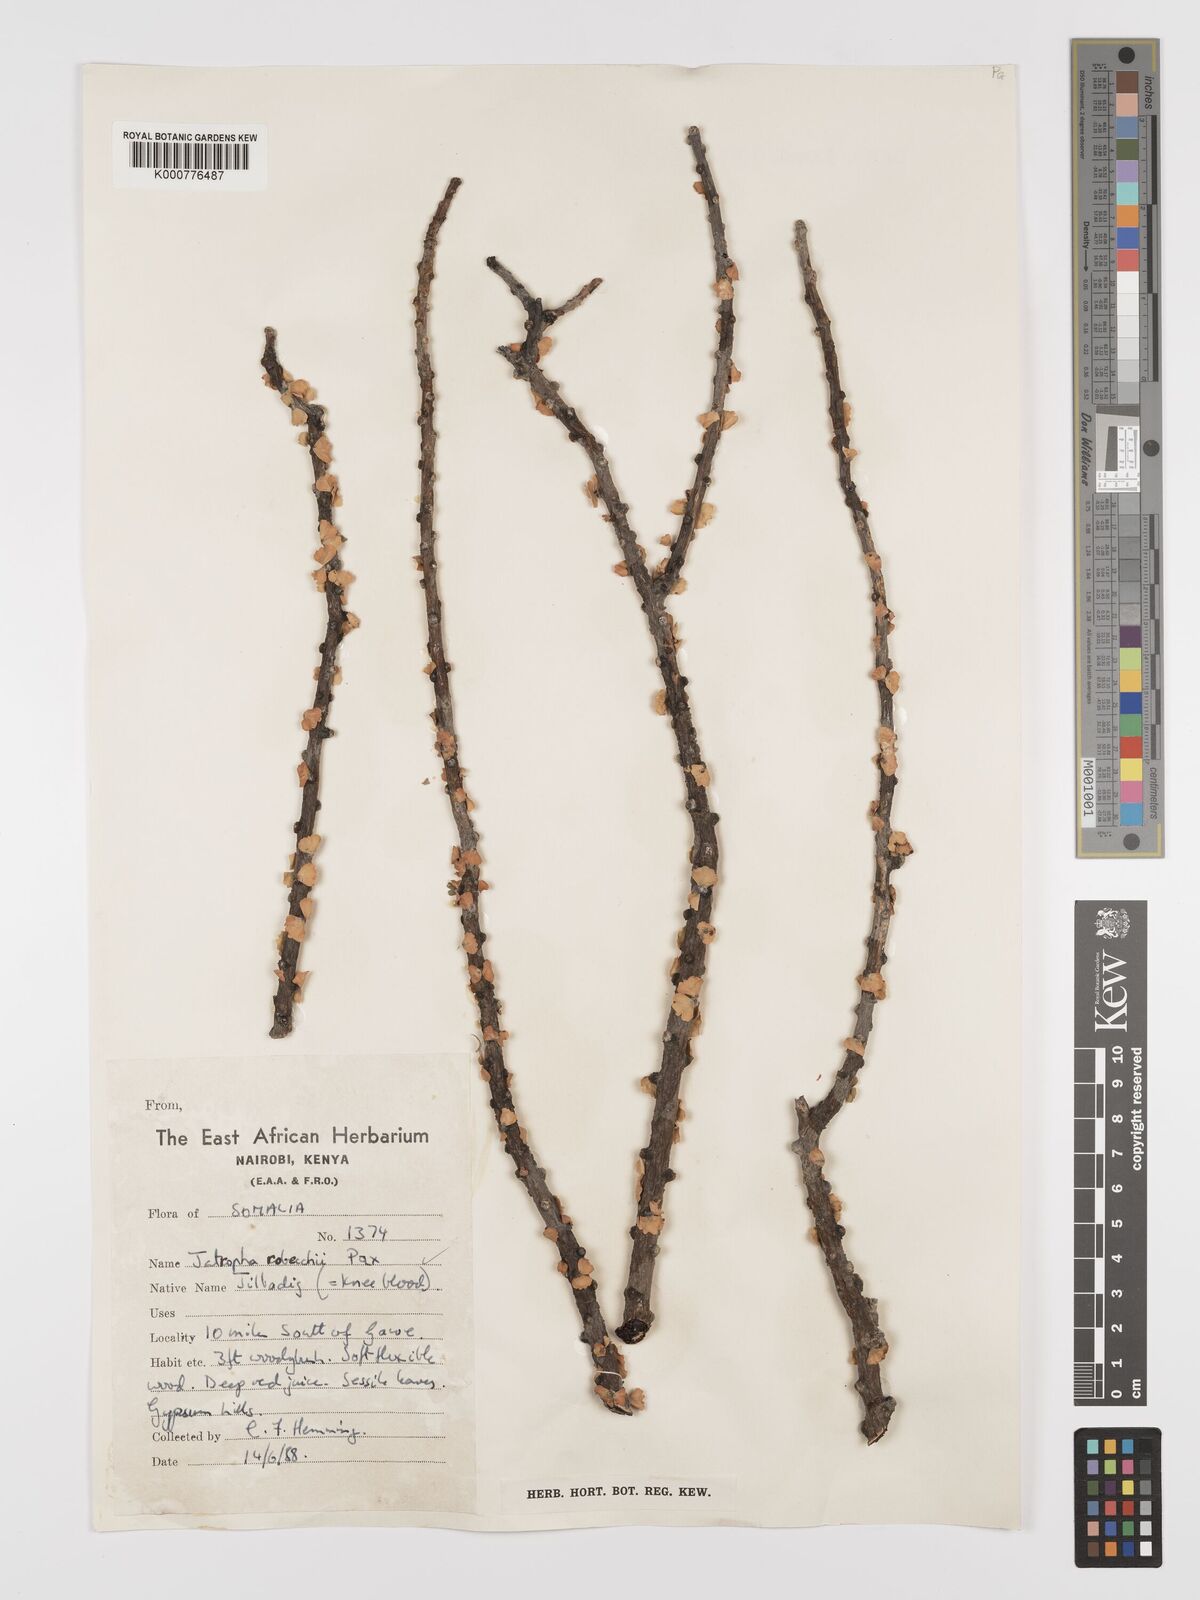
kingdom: Plantae
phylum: Tracheophyta
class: Magnoliopsida
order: Malpighiales
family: Euphorbiaceae
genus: Jatropha
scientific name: Jatropha robecchii
